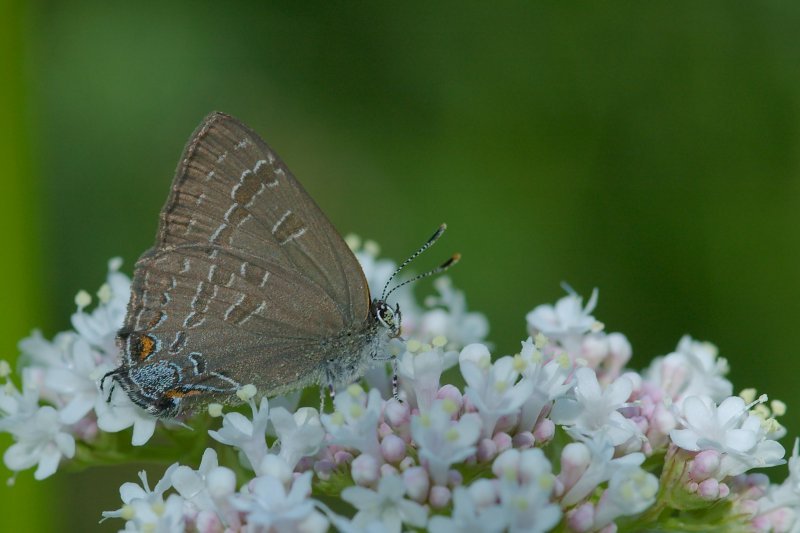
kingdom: Animalia
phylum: Arthropoda
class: Insecta
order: Lepidoptera
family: Lycaenidae
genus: Strymon
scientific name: Strymon caryaevorus
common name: Hickory Hairstreak
